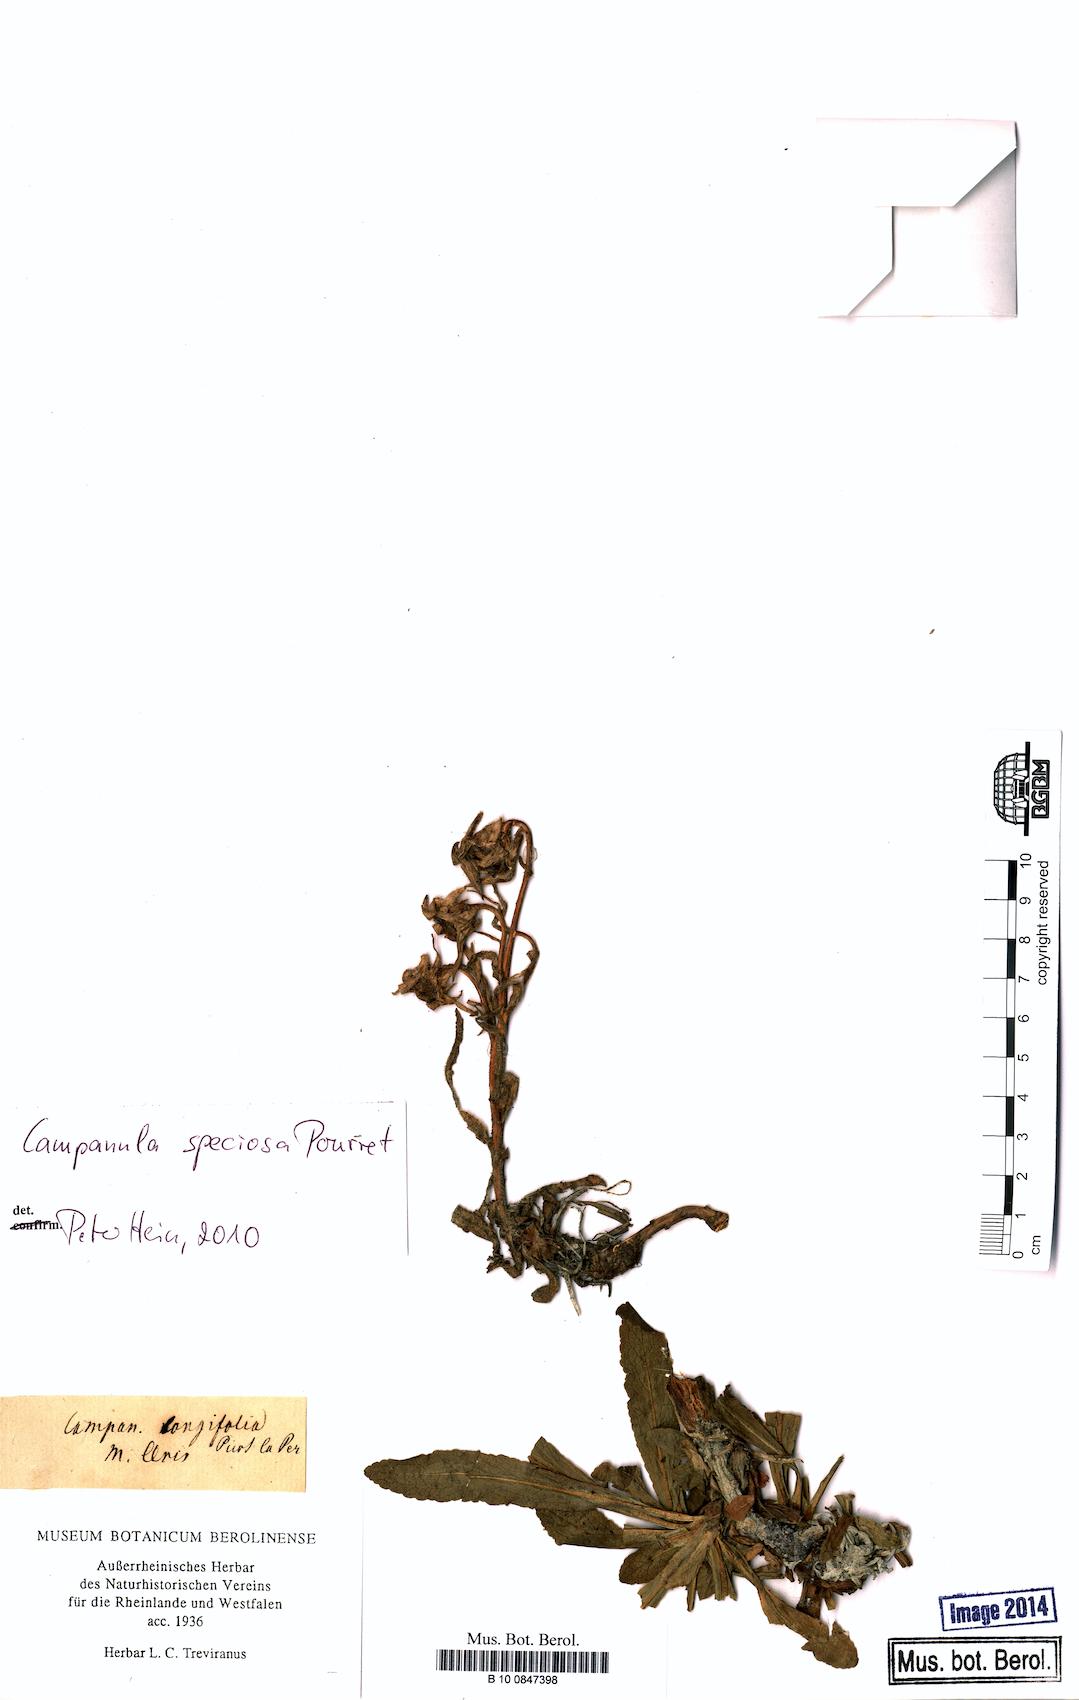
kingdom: Plantae
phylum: Tracheophyta
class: Magnoliopsida
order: Asterales
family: Campanulaceae
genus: Campanula
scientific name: Campanula speciosa
